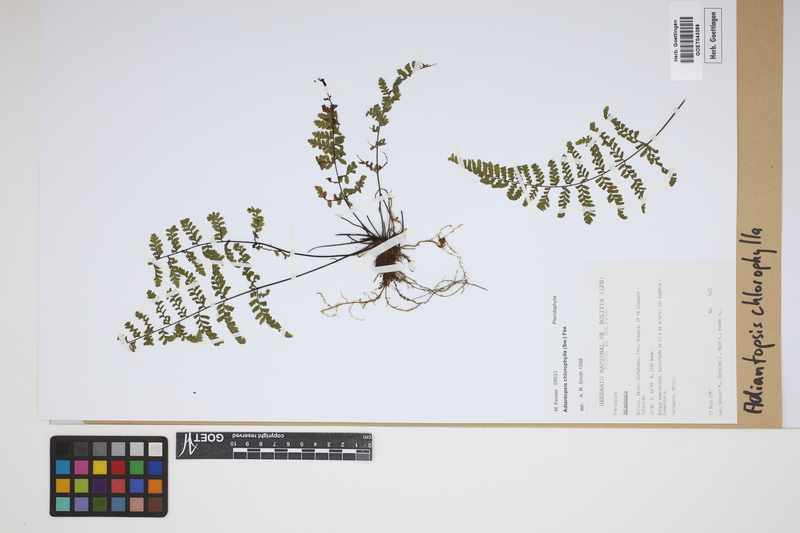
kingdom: Plantae
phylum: Tracheophyta
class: Polypodiopsida
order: Polypodiales
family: Pteridaceae
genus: Adiantopsis
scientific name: Adiantopsis chlorophylla
